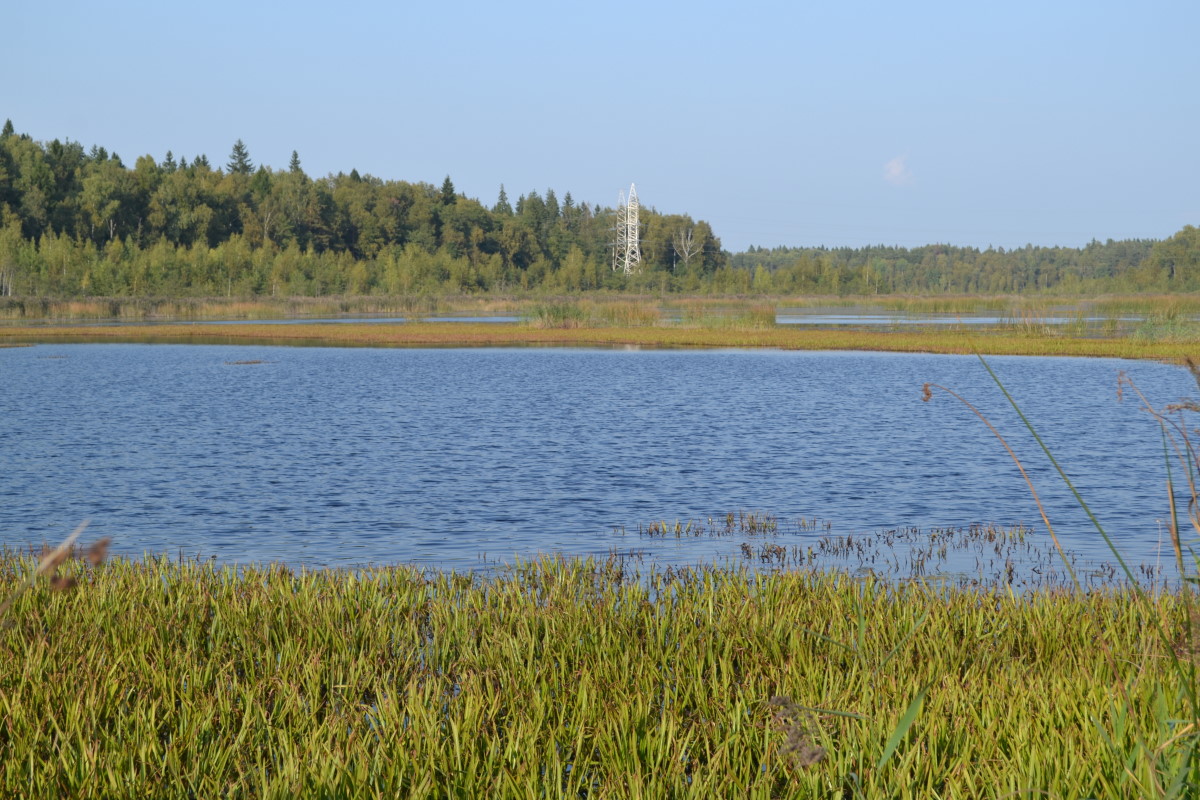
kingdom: Plantae
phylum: Tracheophyta
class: Liliopsida
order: Alismatales
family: Hydrocharitaceae
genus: Stratiotes
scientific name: Stratiotes aloides
